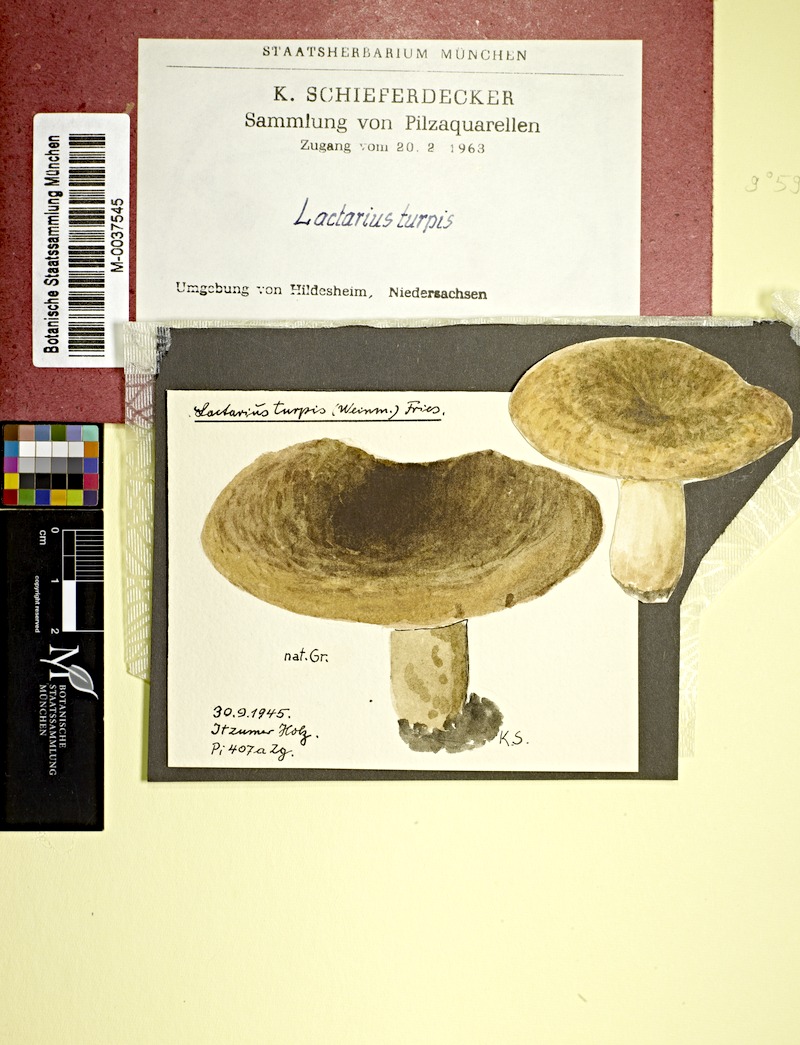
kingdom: Fungi
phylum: Basidiomycota
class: Agaricomycetes
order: Russulales
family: Russulaceae
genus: Lactarius
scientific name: Lactarius plumbeus
